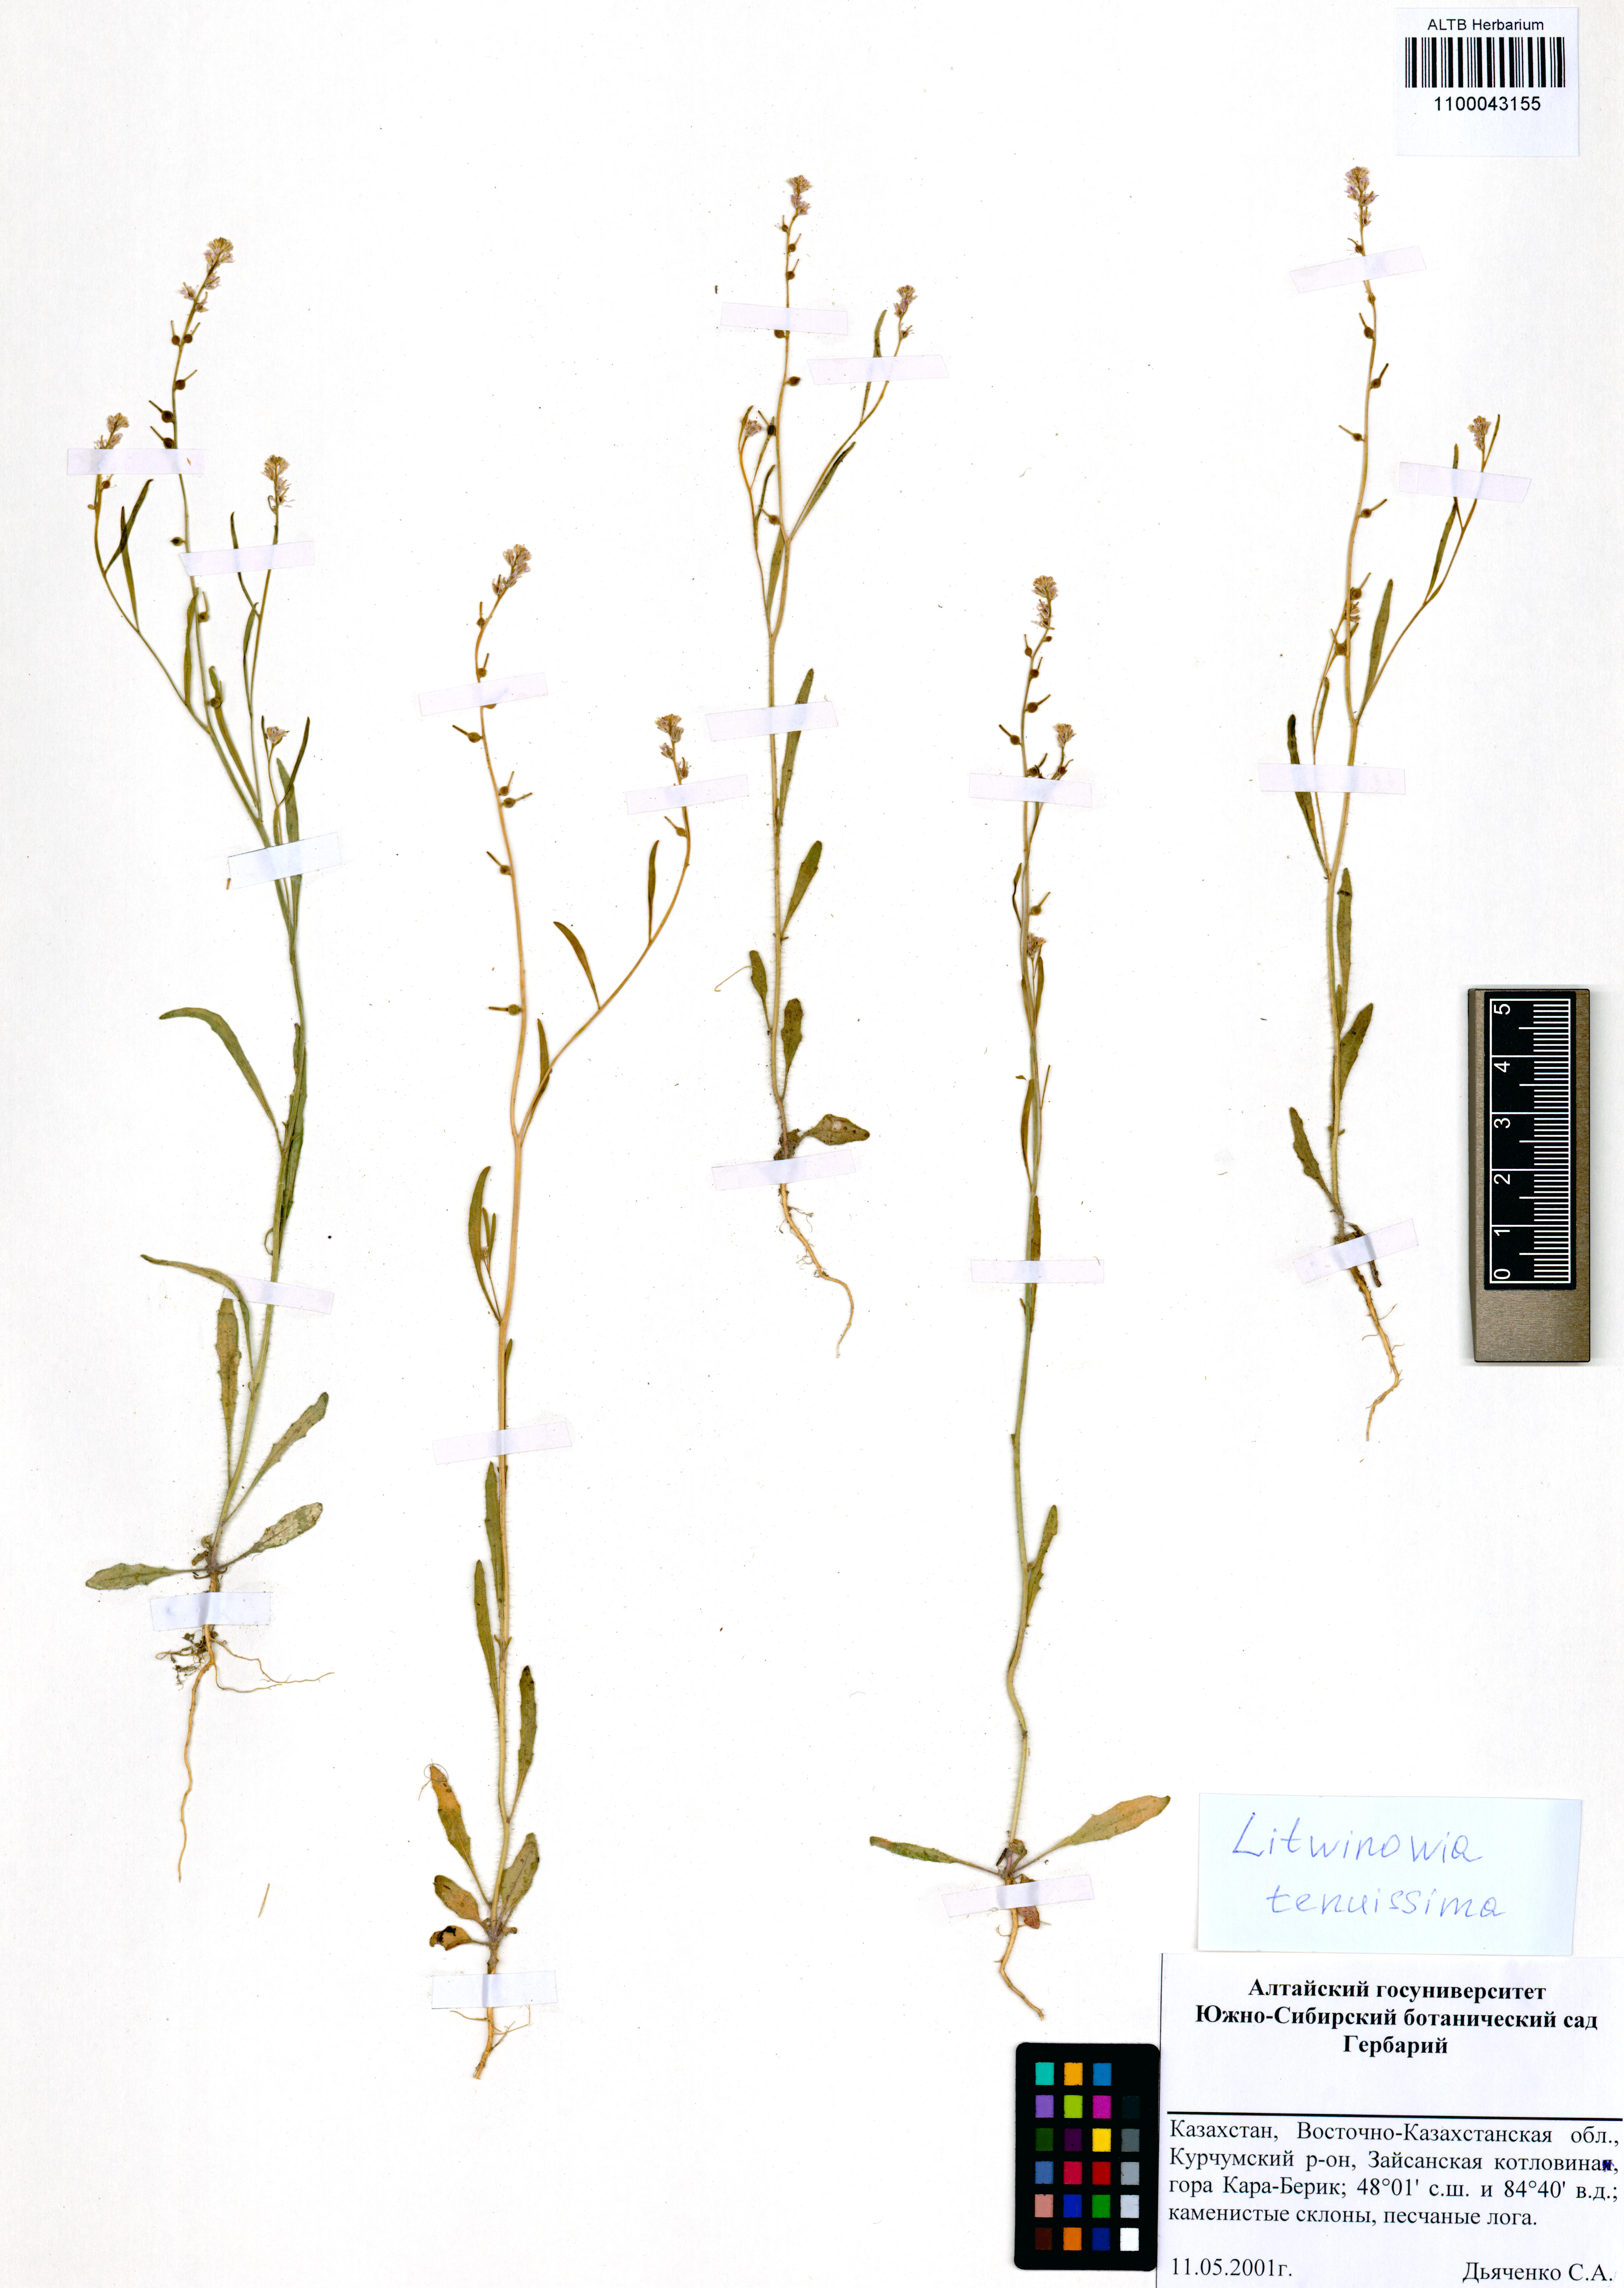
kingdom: Plantae
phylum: Tracheophyta
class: Magnoliopsida
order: Brassicales
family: Brassicaceae
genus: Litwinowia
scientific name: Litwinowia tenuissima
